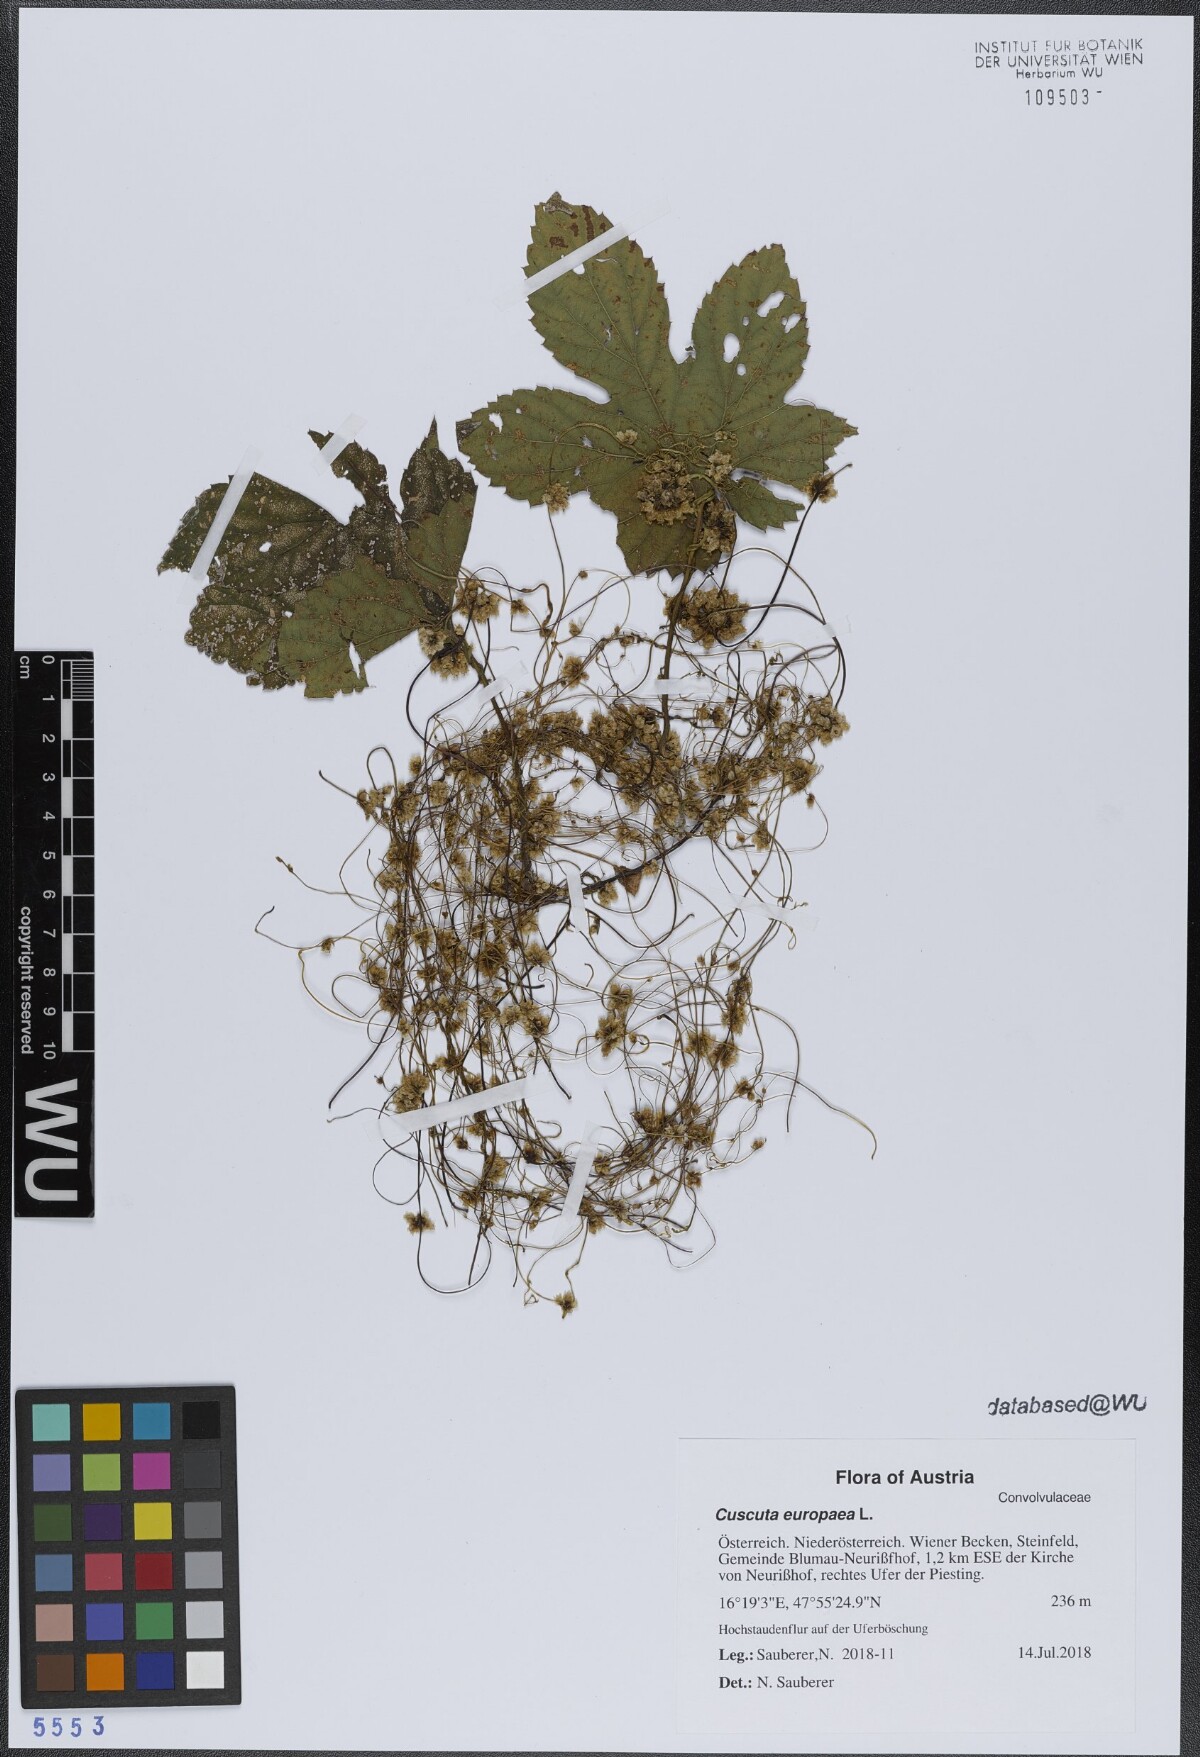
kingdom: Plantae
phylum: Tracheophyta
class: Magnoliopsida
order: Solanales
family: Convolvulaceae
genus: Cuscuta
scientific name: Cuscuta europaea
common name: Greater dodder
